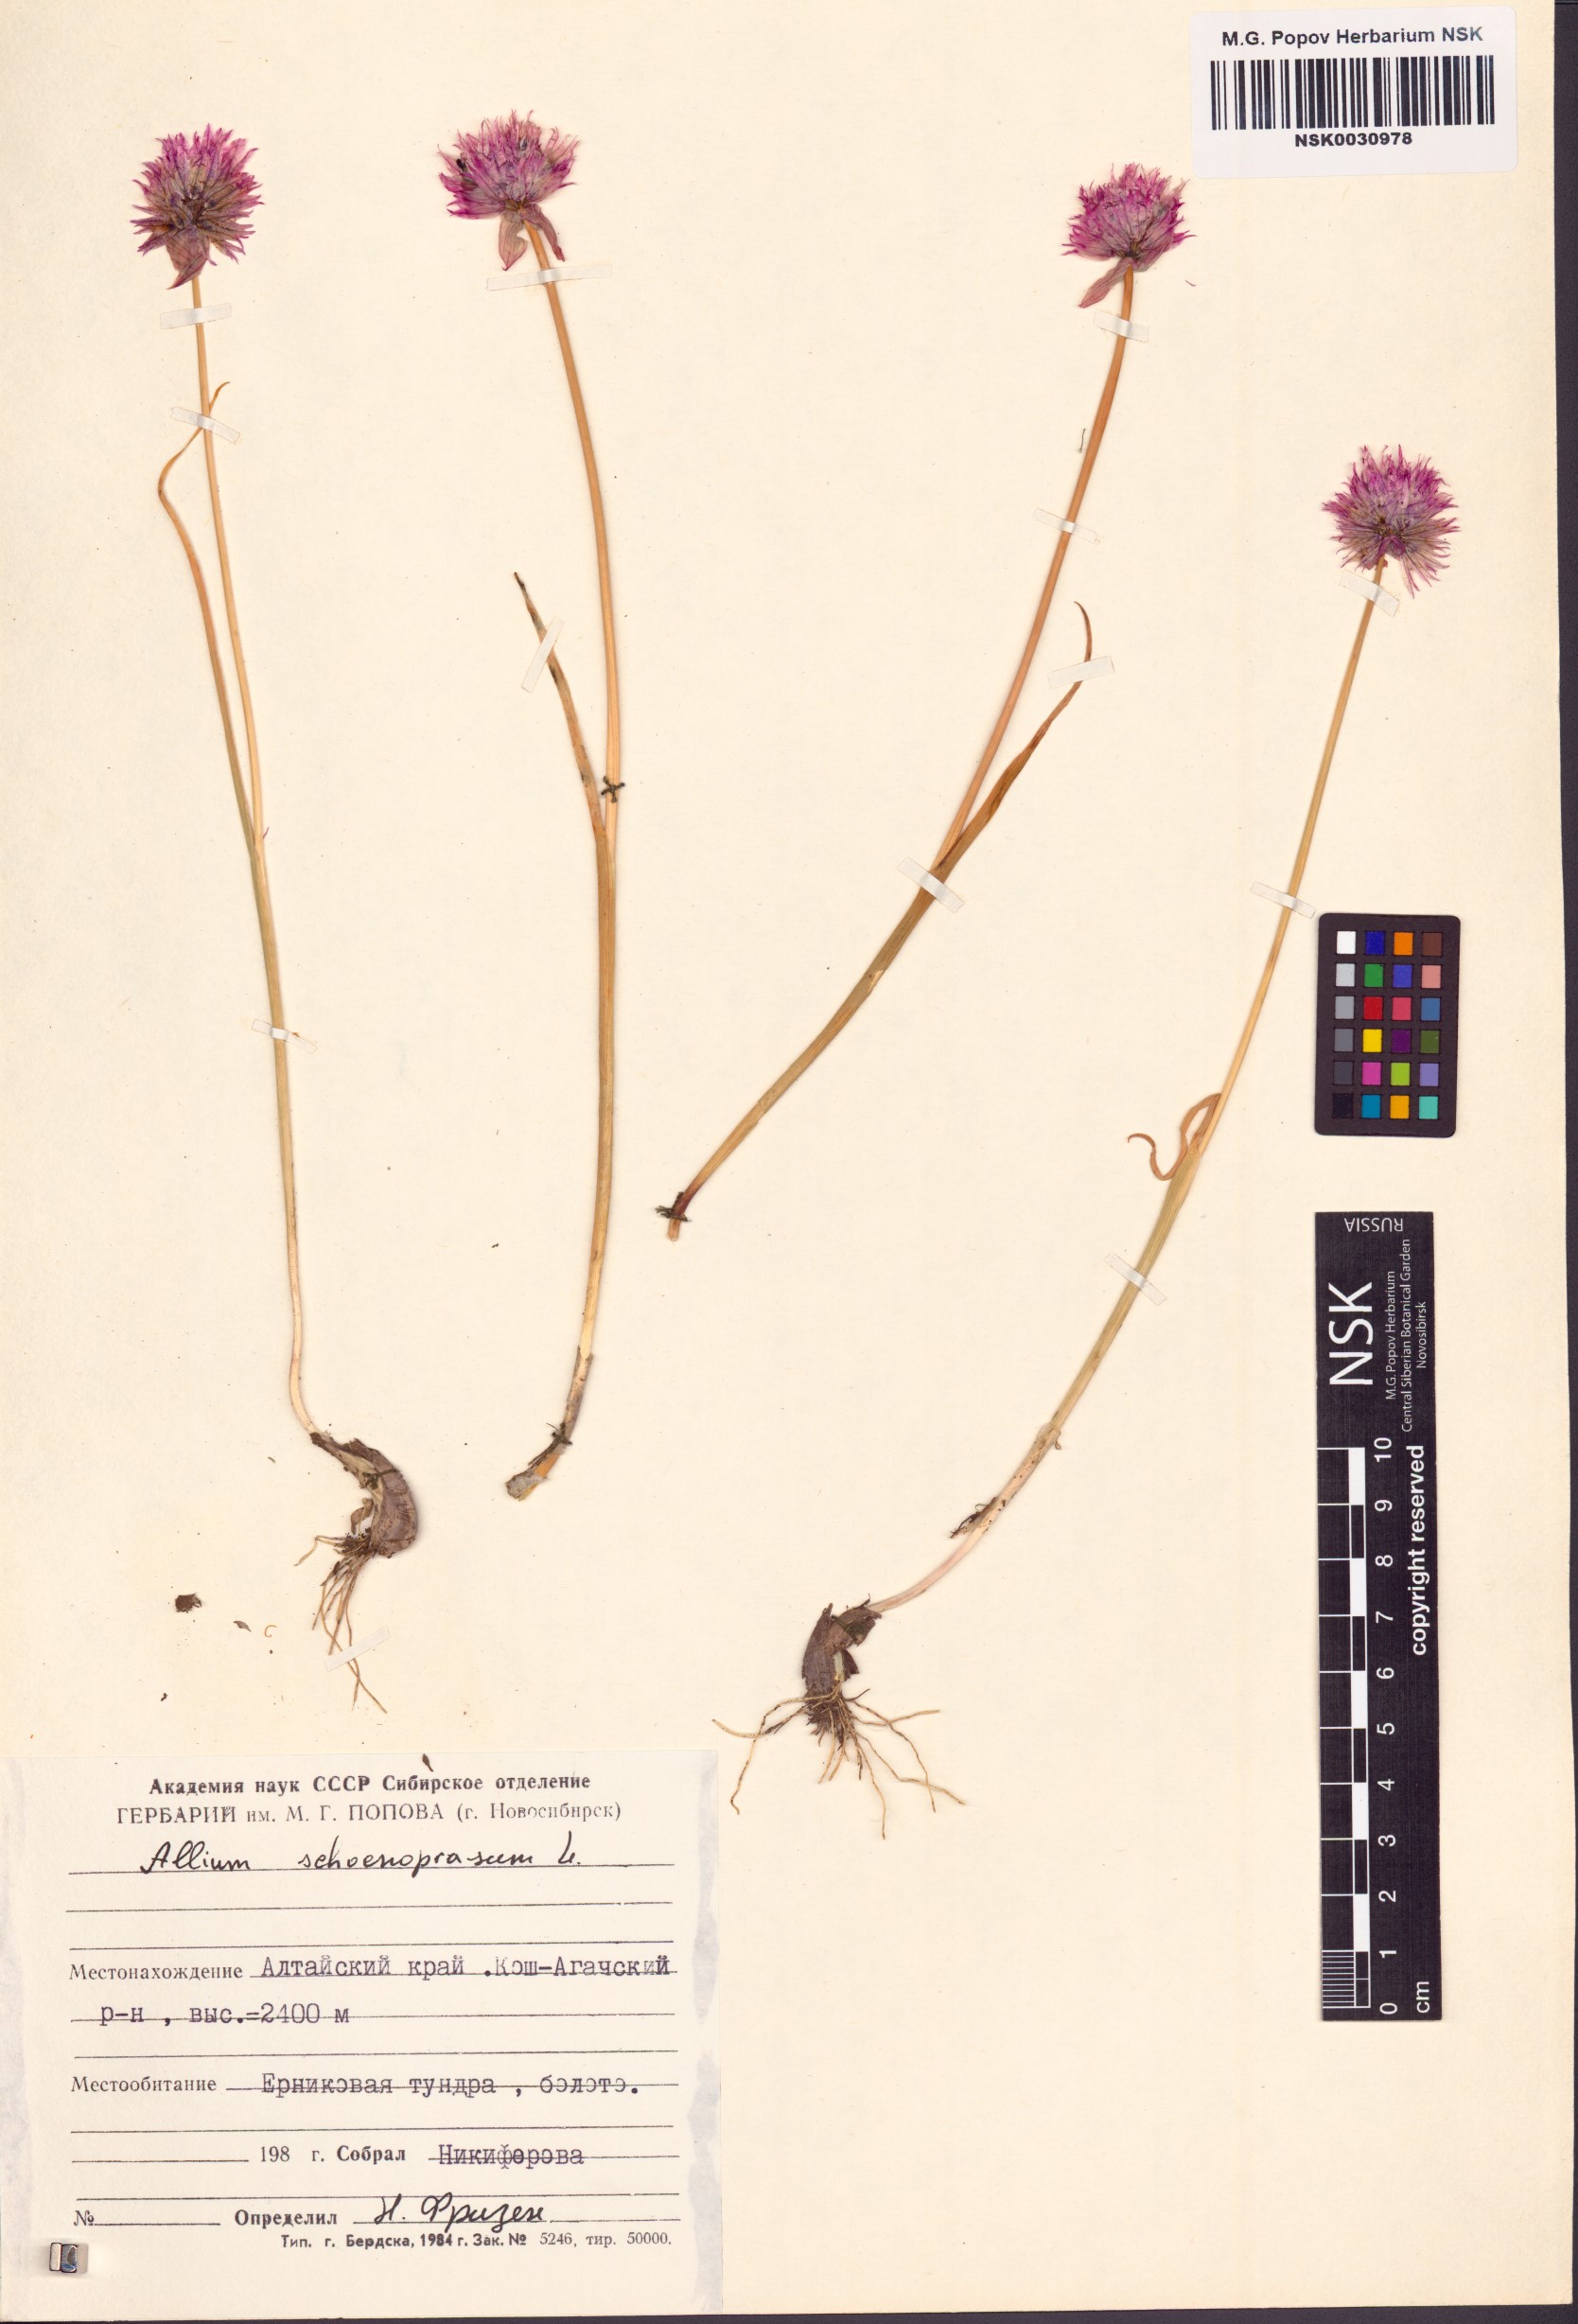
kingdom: Plantae
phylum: Tracheophyta
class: Liliopsida
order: Asparagales
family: Amaryllidaceae
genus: Allium
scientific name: Allium schoenoprasum
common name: Chives
